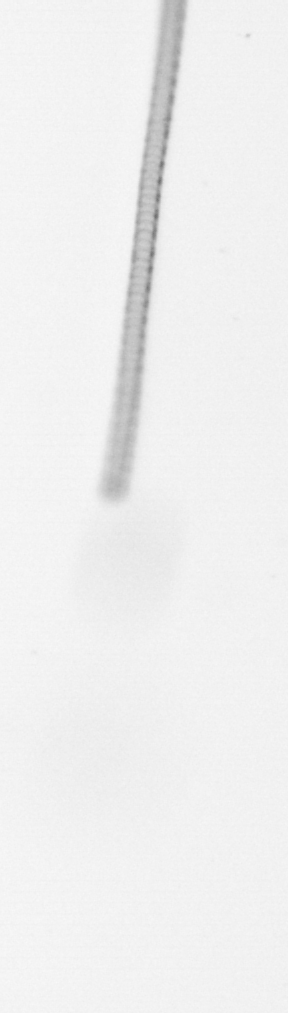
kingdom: Chromista
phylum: Ochrophyta
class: Bacillariophyceae
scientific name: Bacillariophyceae
